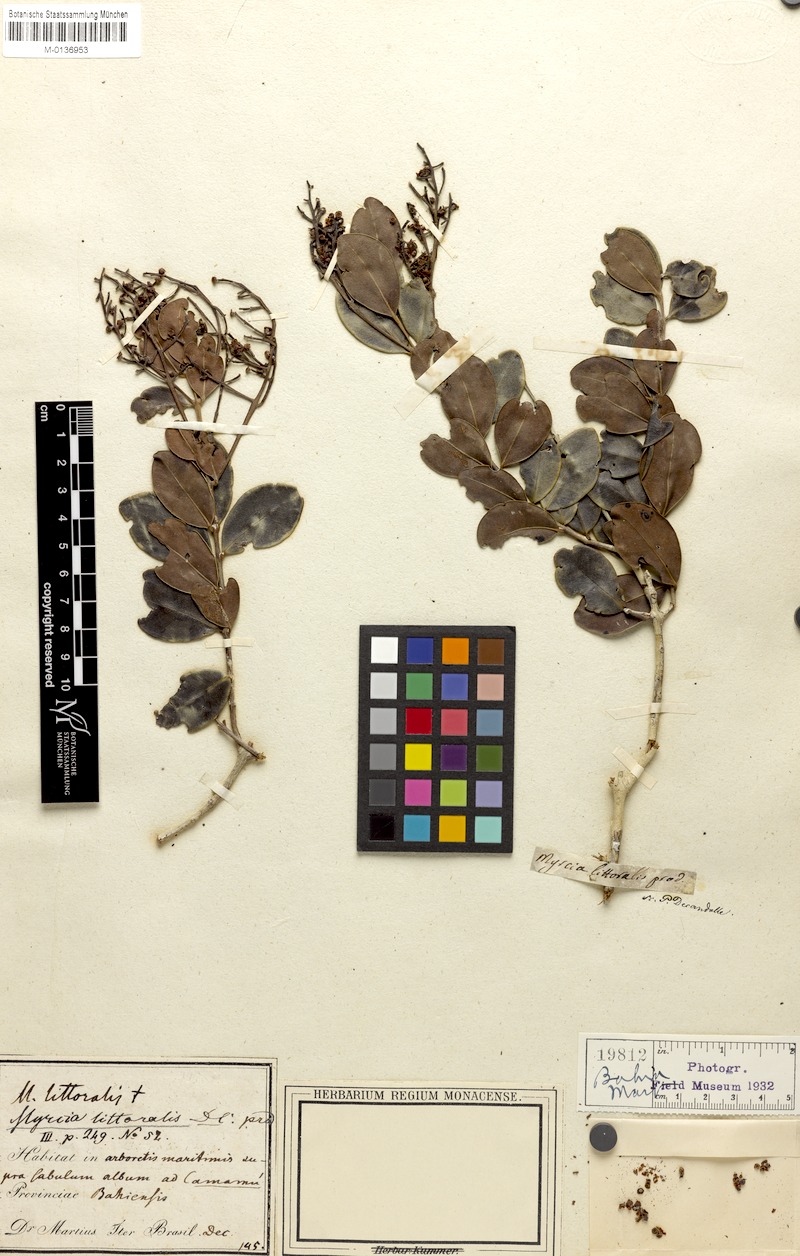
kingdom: Plantae
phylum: Tracheophyta
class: Magnoliopsida
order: Myrtales
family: Myrtaceae
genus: Myrcia
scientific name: Myrcia littoralis
